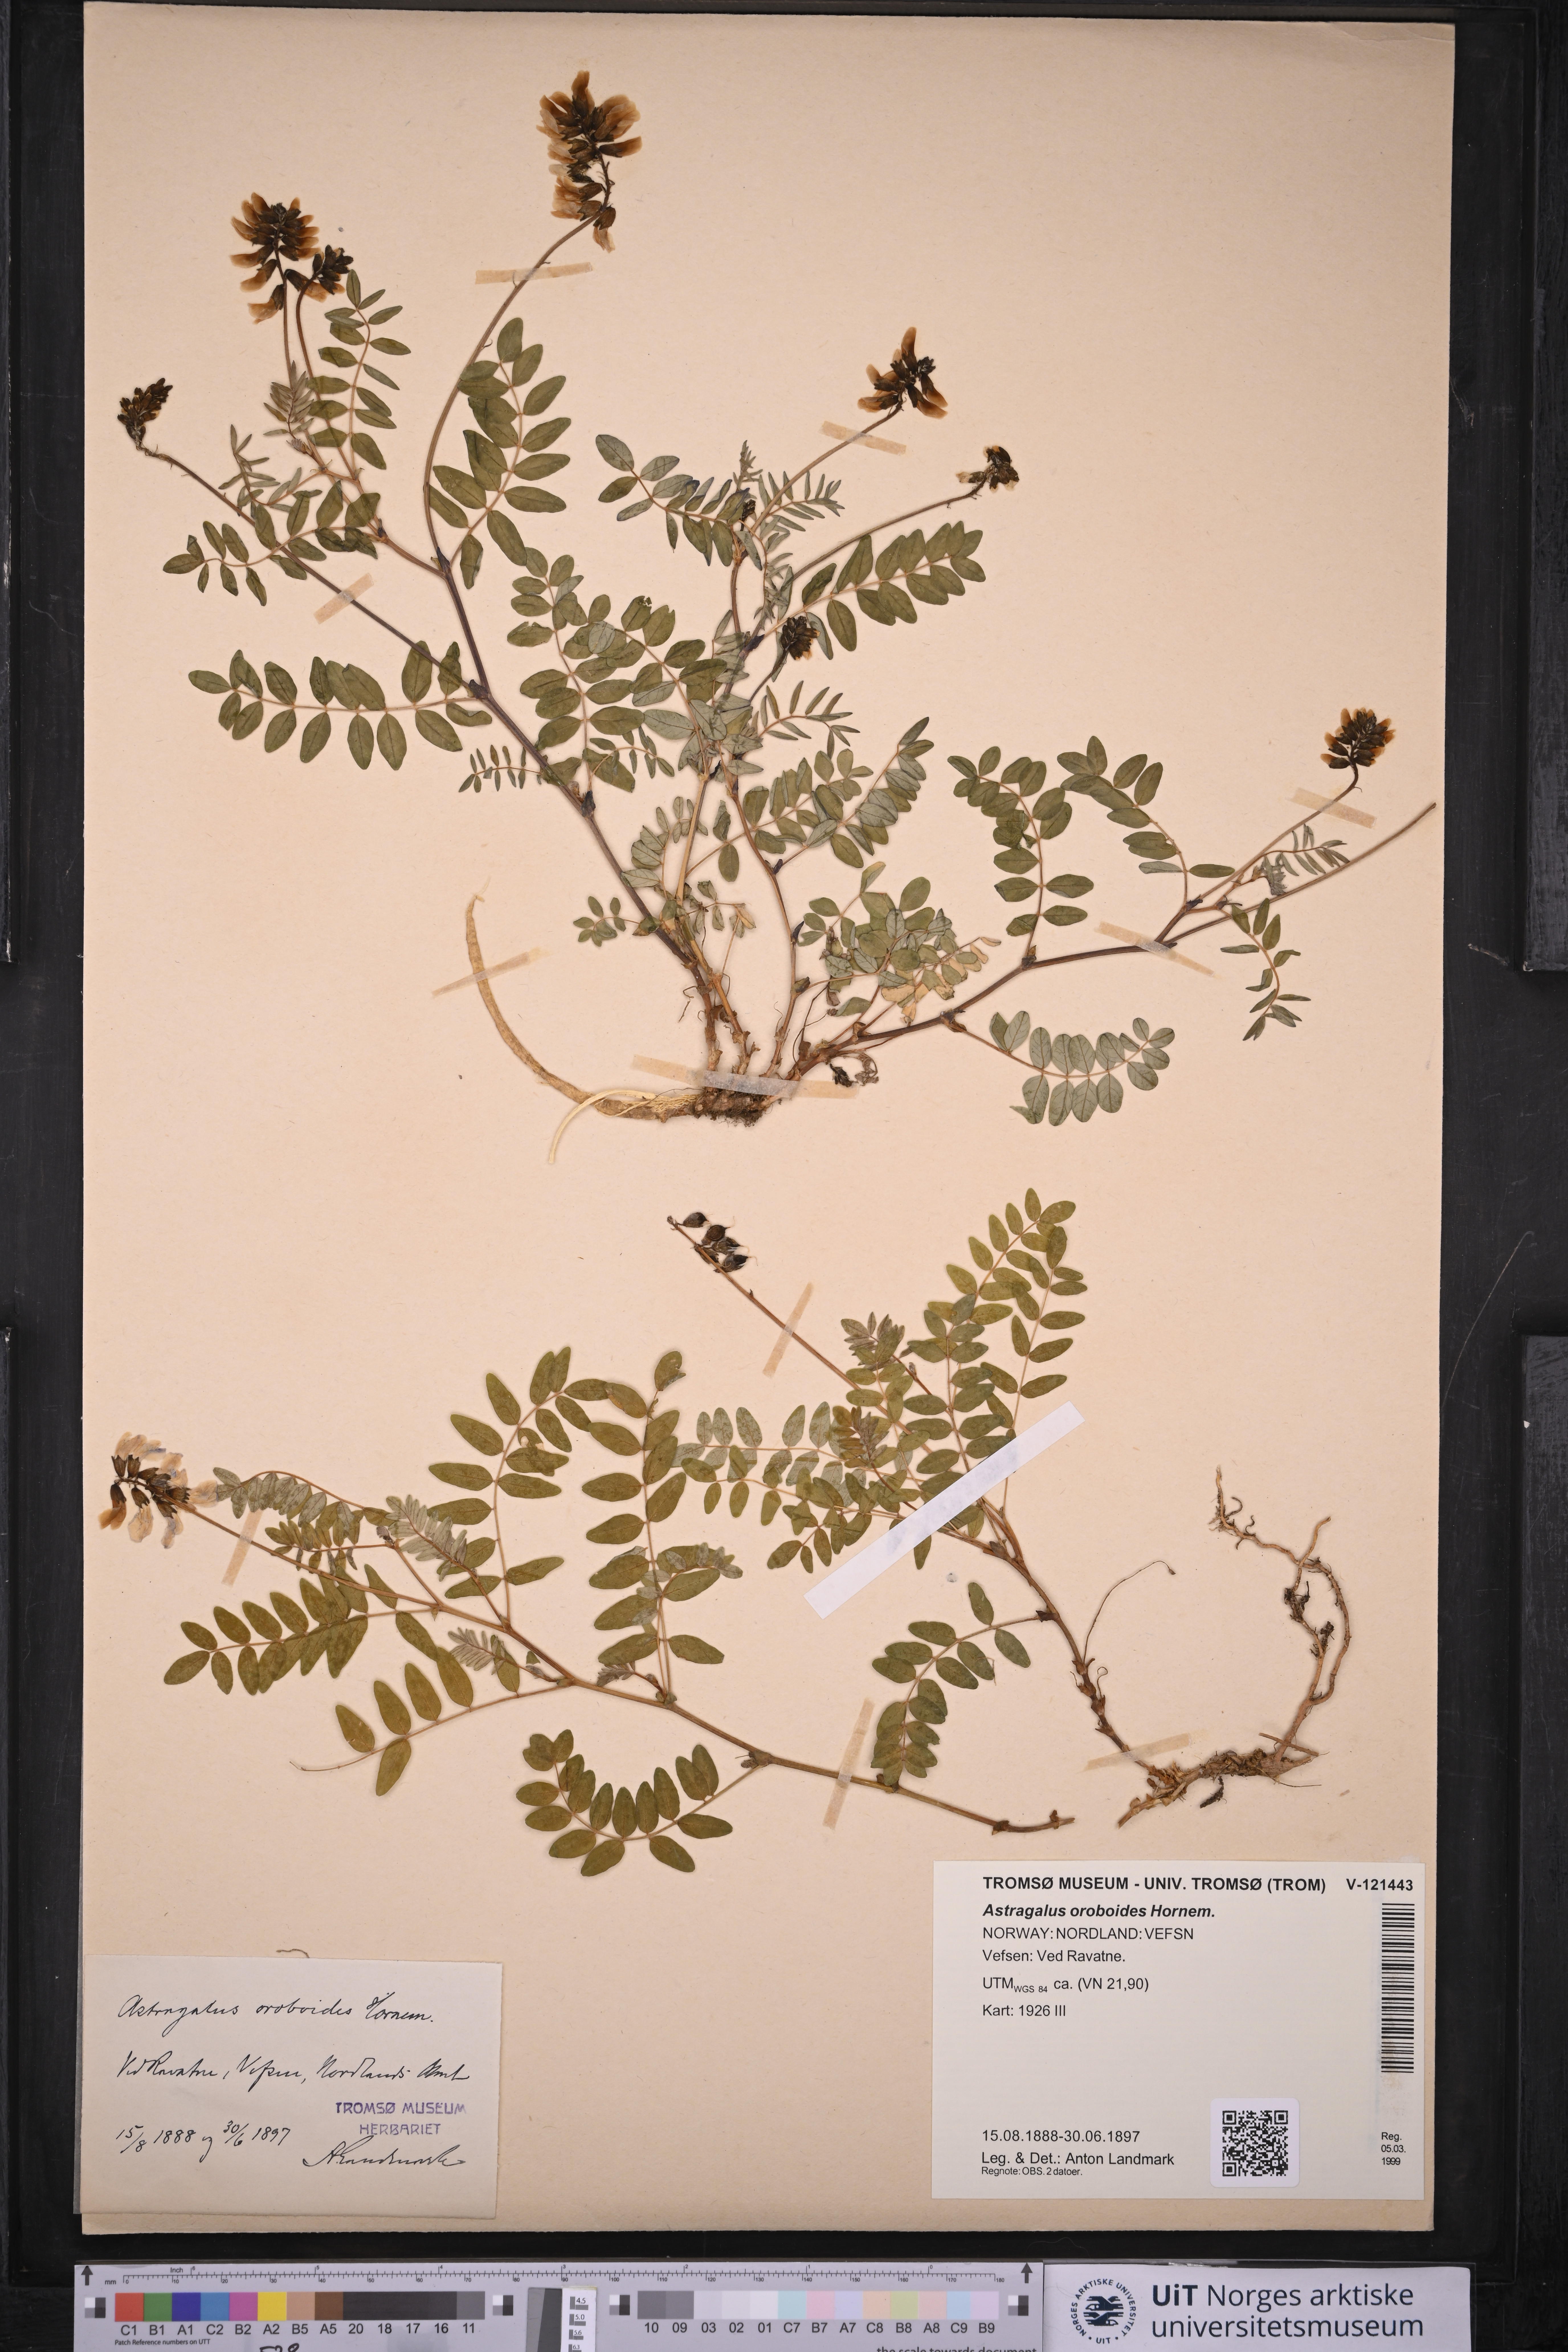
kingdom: Plantae
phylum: Tracheophyta
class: Magnoliopsida
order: Fabales
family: Fabaceae
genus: Astragalus
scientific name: Astragalus norvegicus
